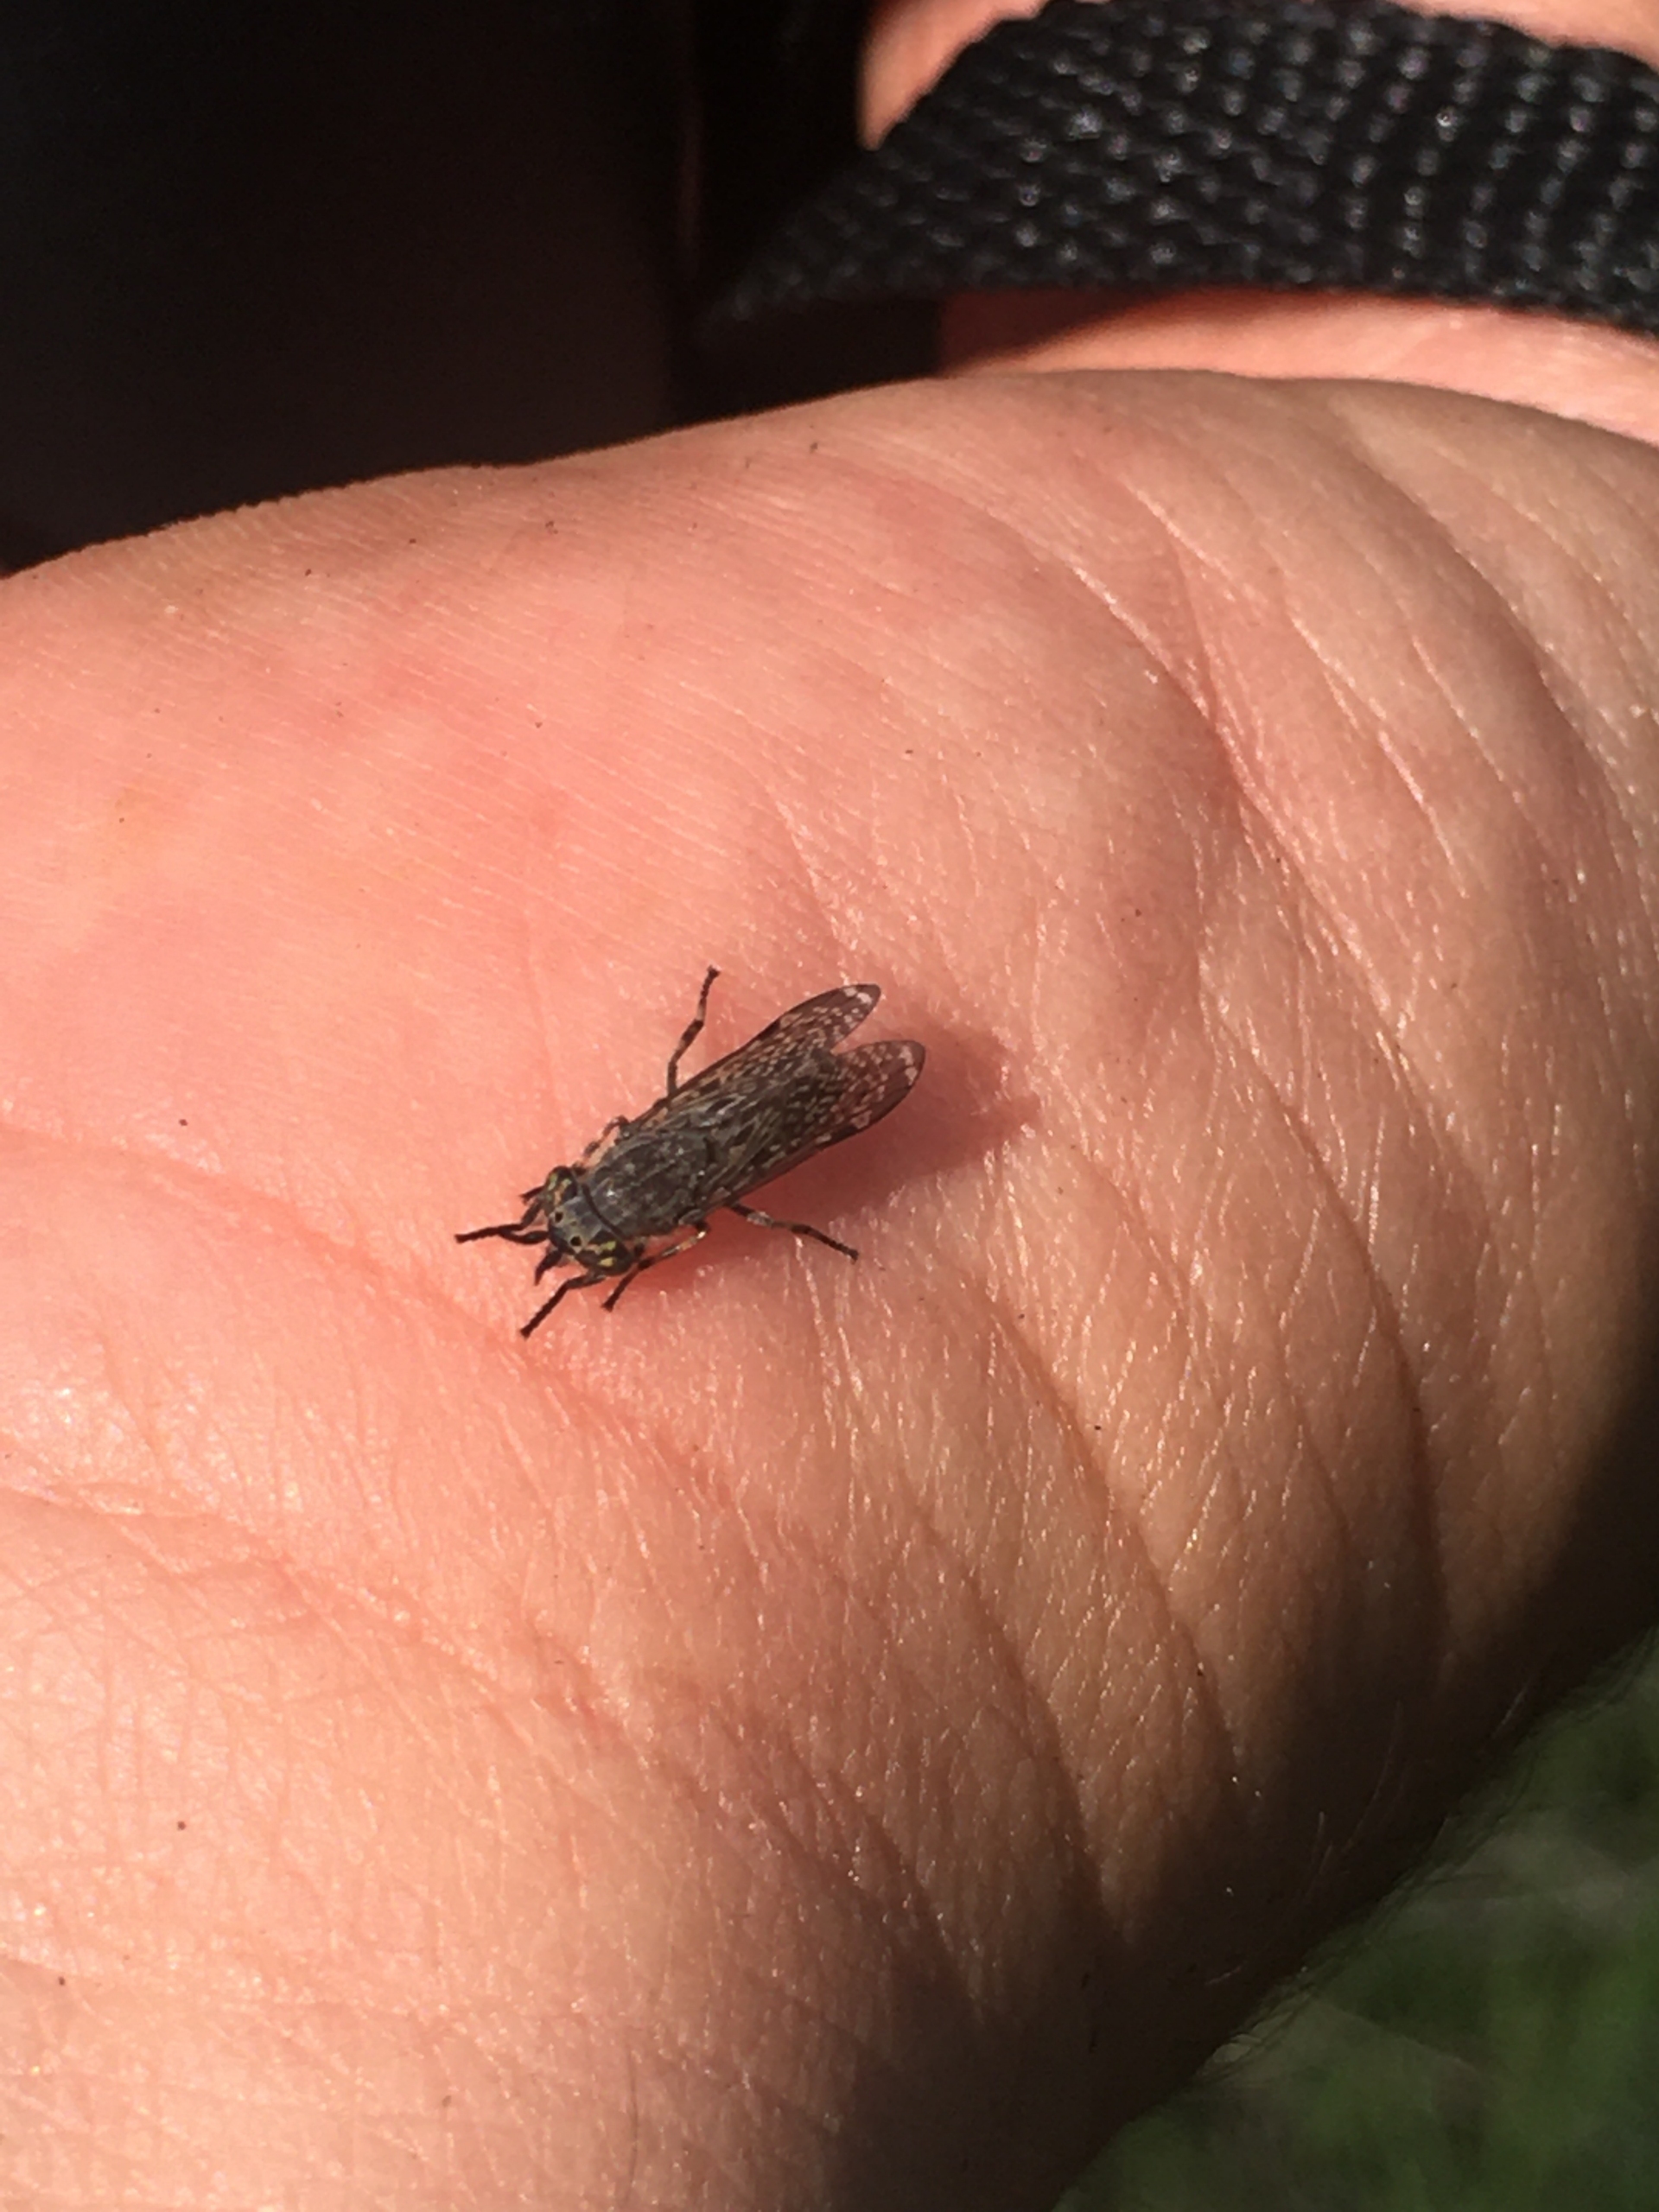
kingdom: Animalia
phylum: Arthropoda
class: Insecta
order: Diptera
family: Tabanidae
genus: Haematopota
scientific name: Haematopota pluvialis
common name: Regnklæg
